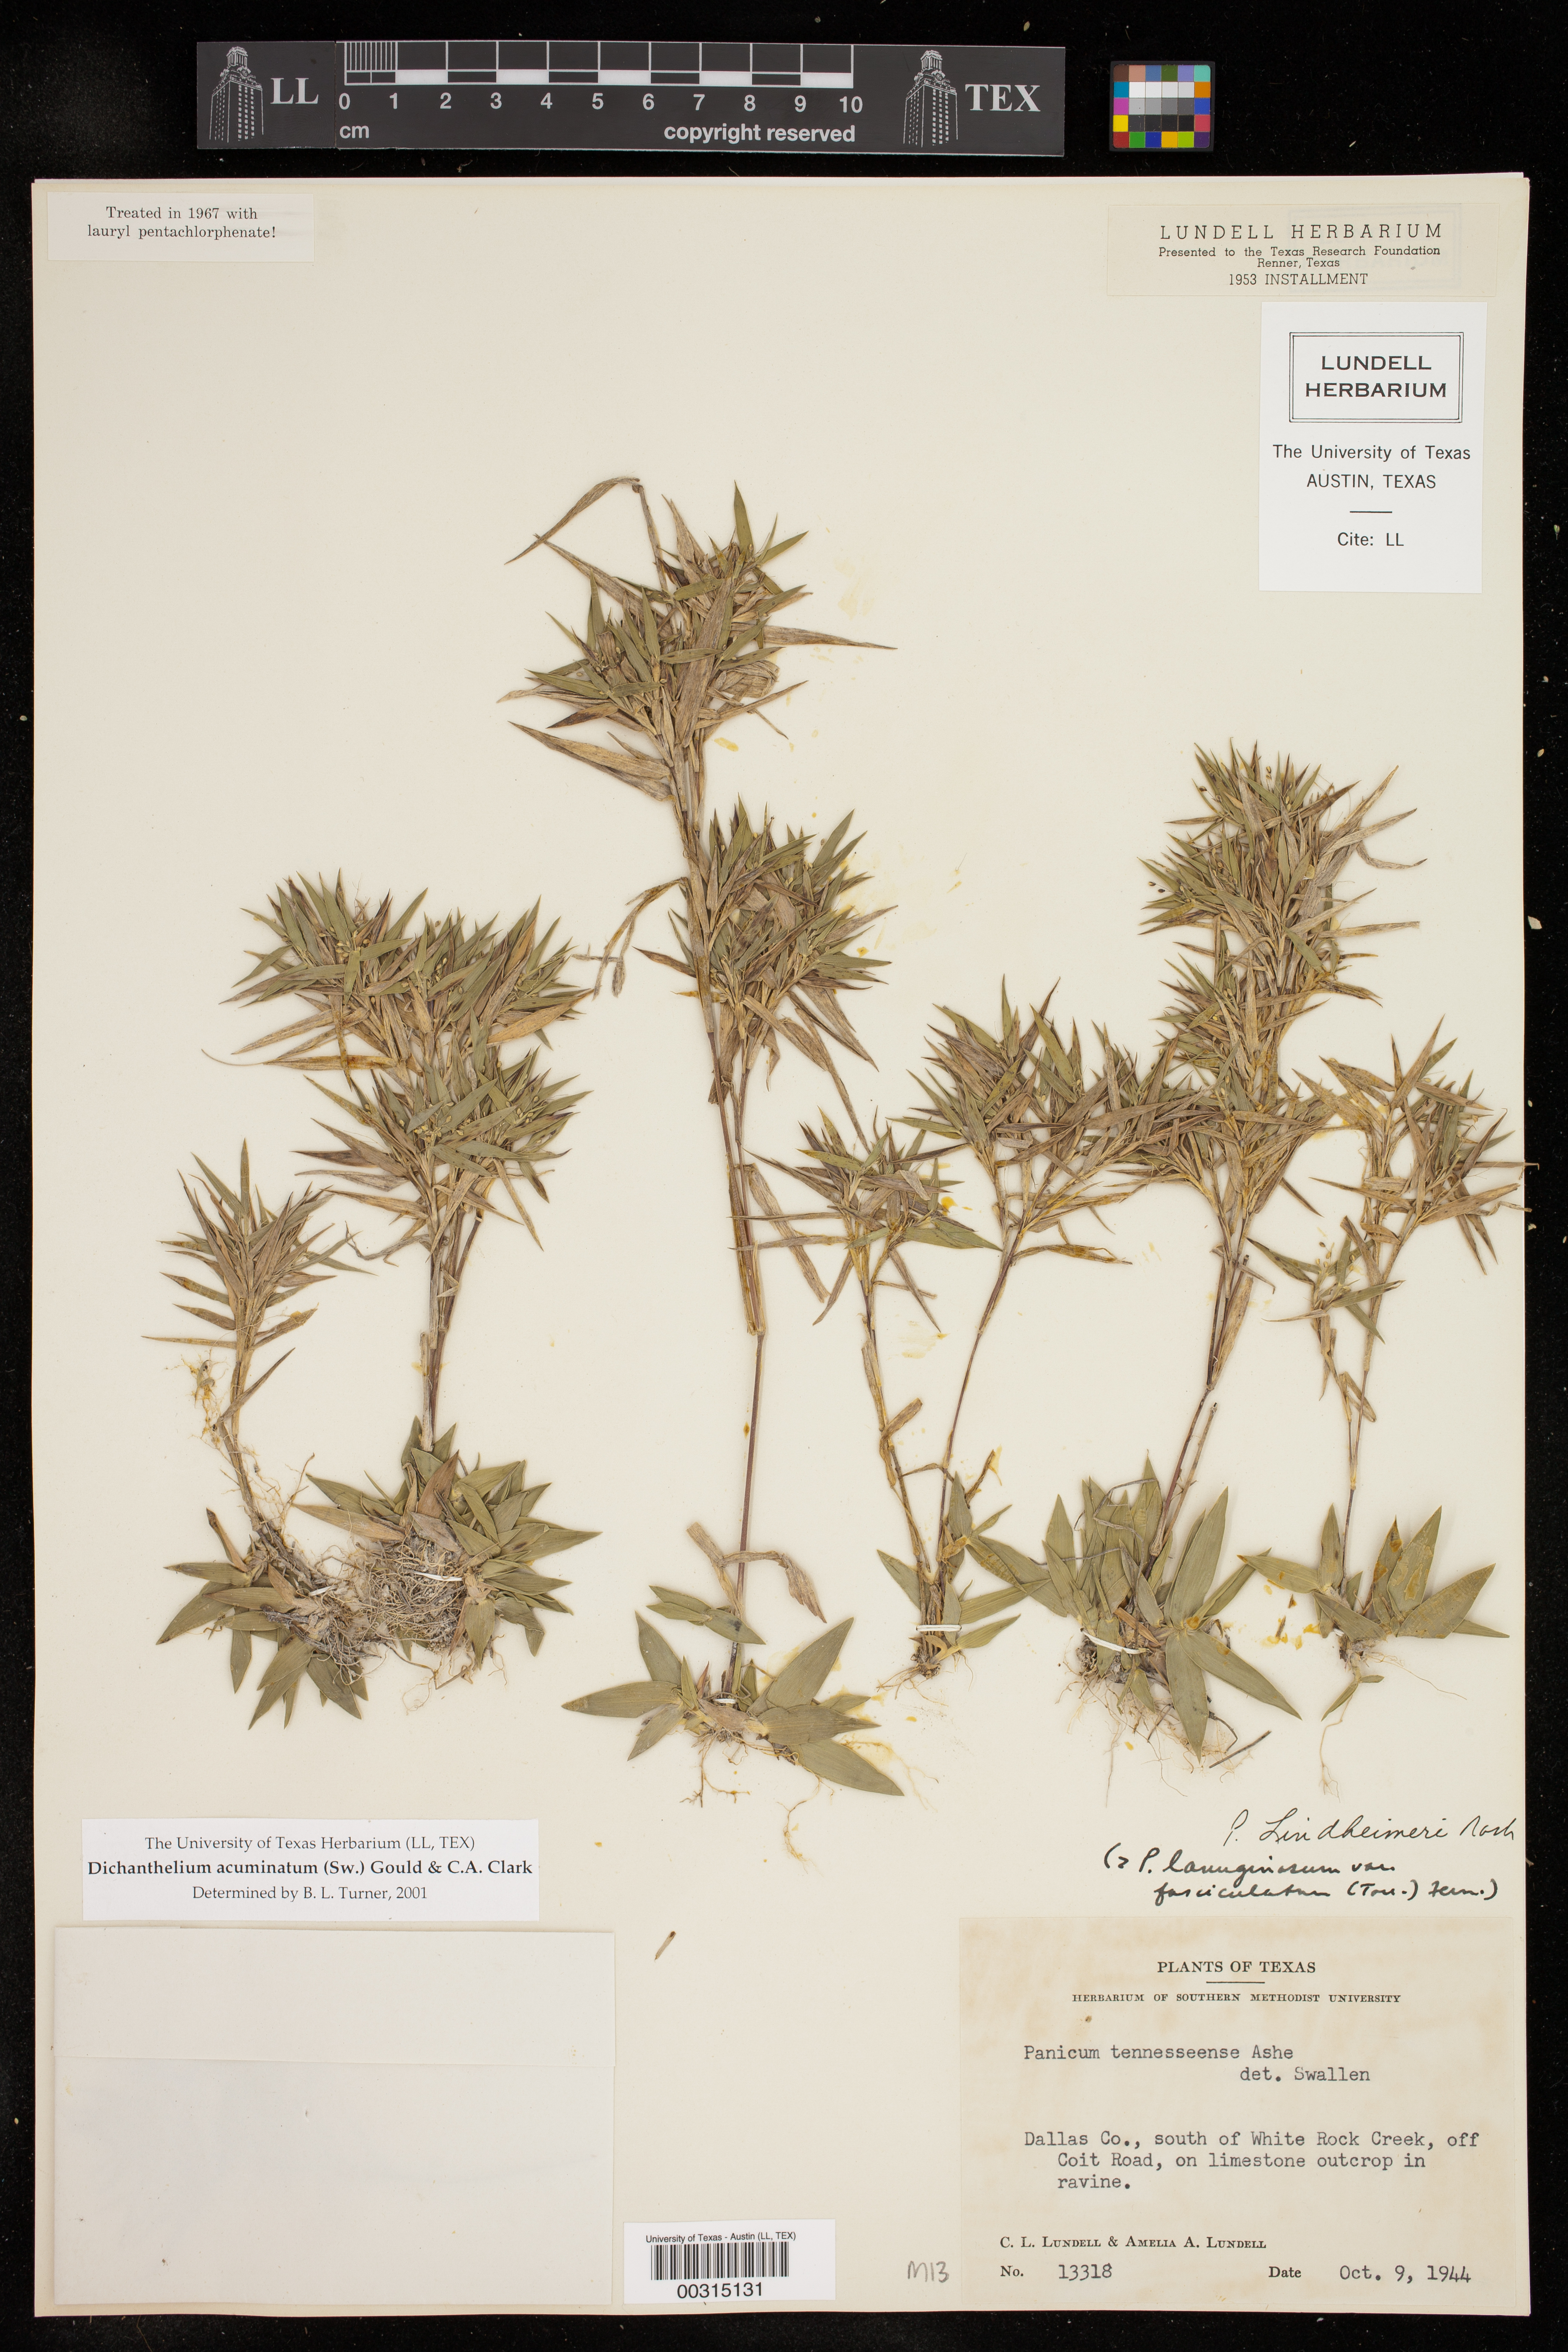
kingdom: Plantae
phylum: Tracheophyta
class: Liliopsida
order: Poales
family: Poaceae
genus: Dichanthelium
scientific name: Dichanthelium acuminatum
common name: Hairy panic grass
